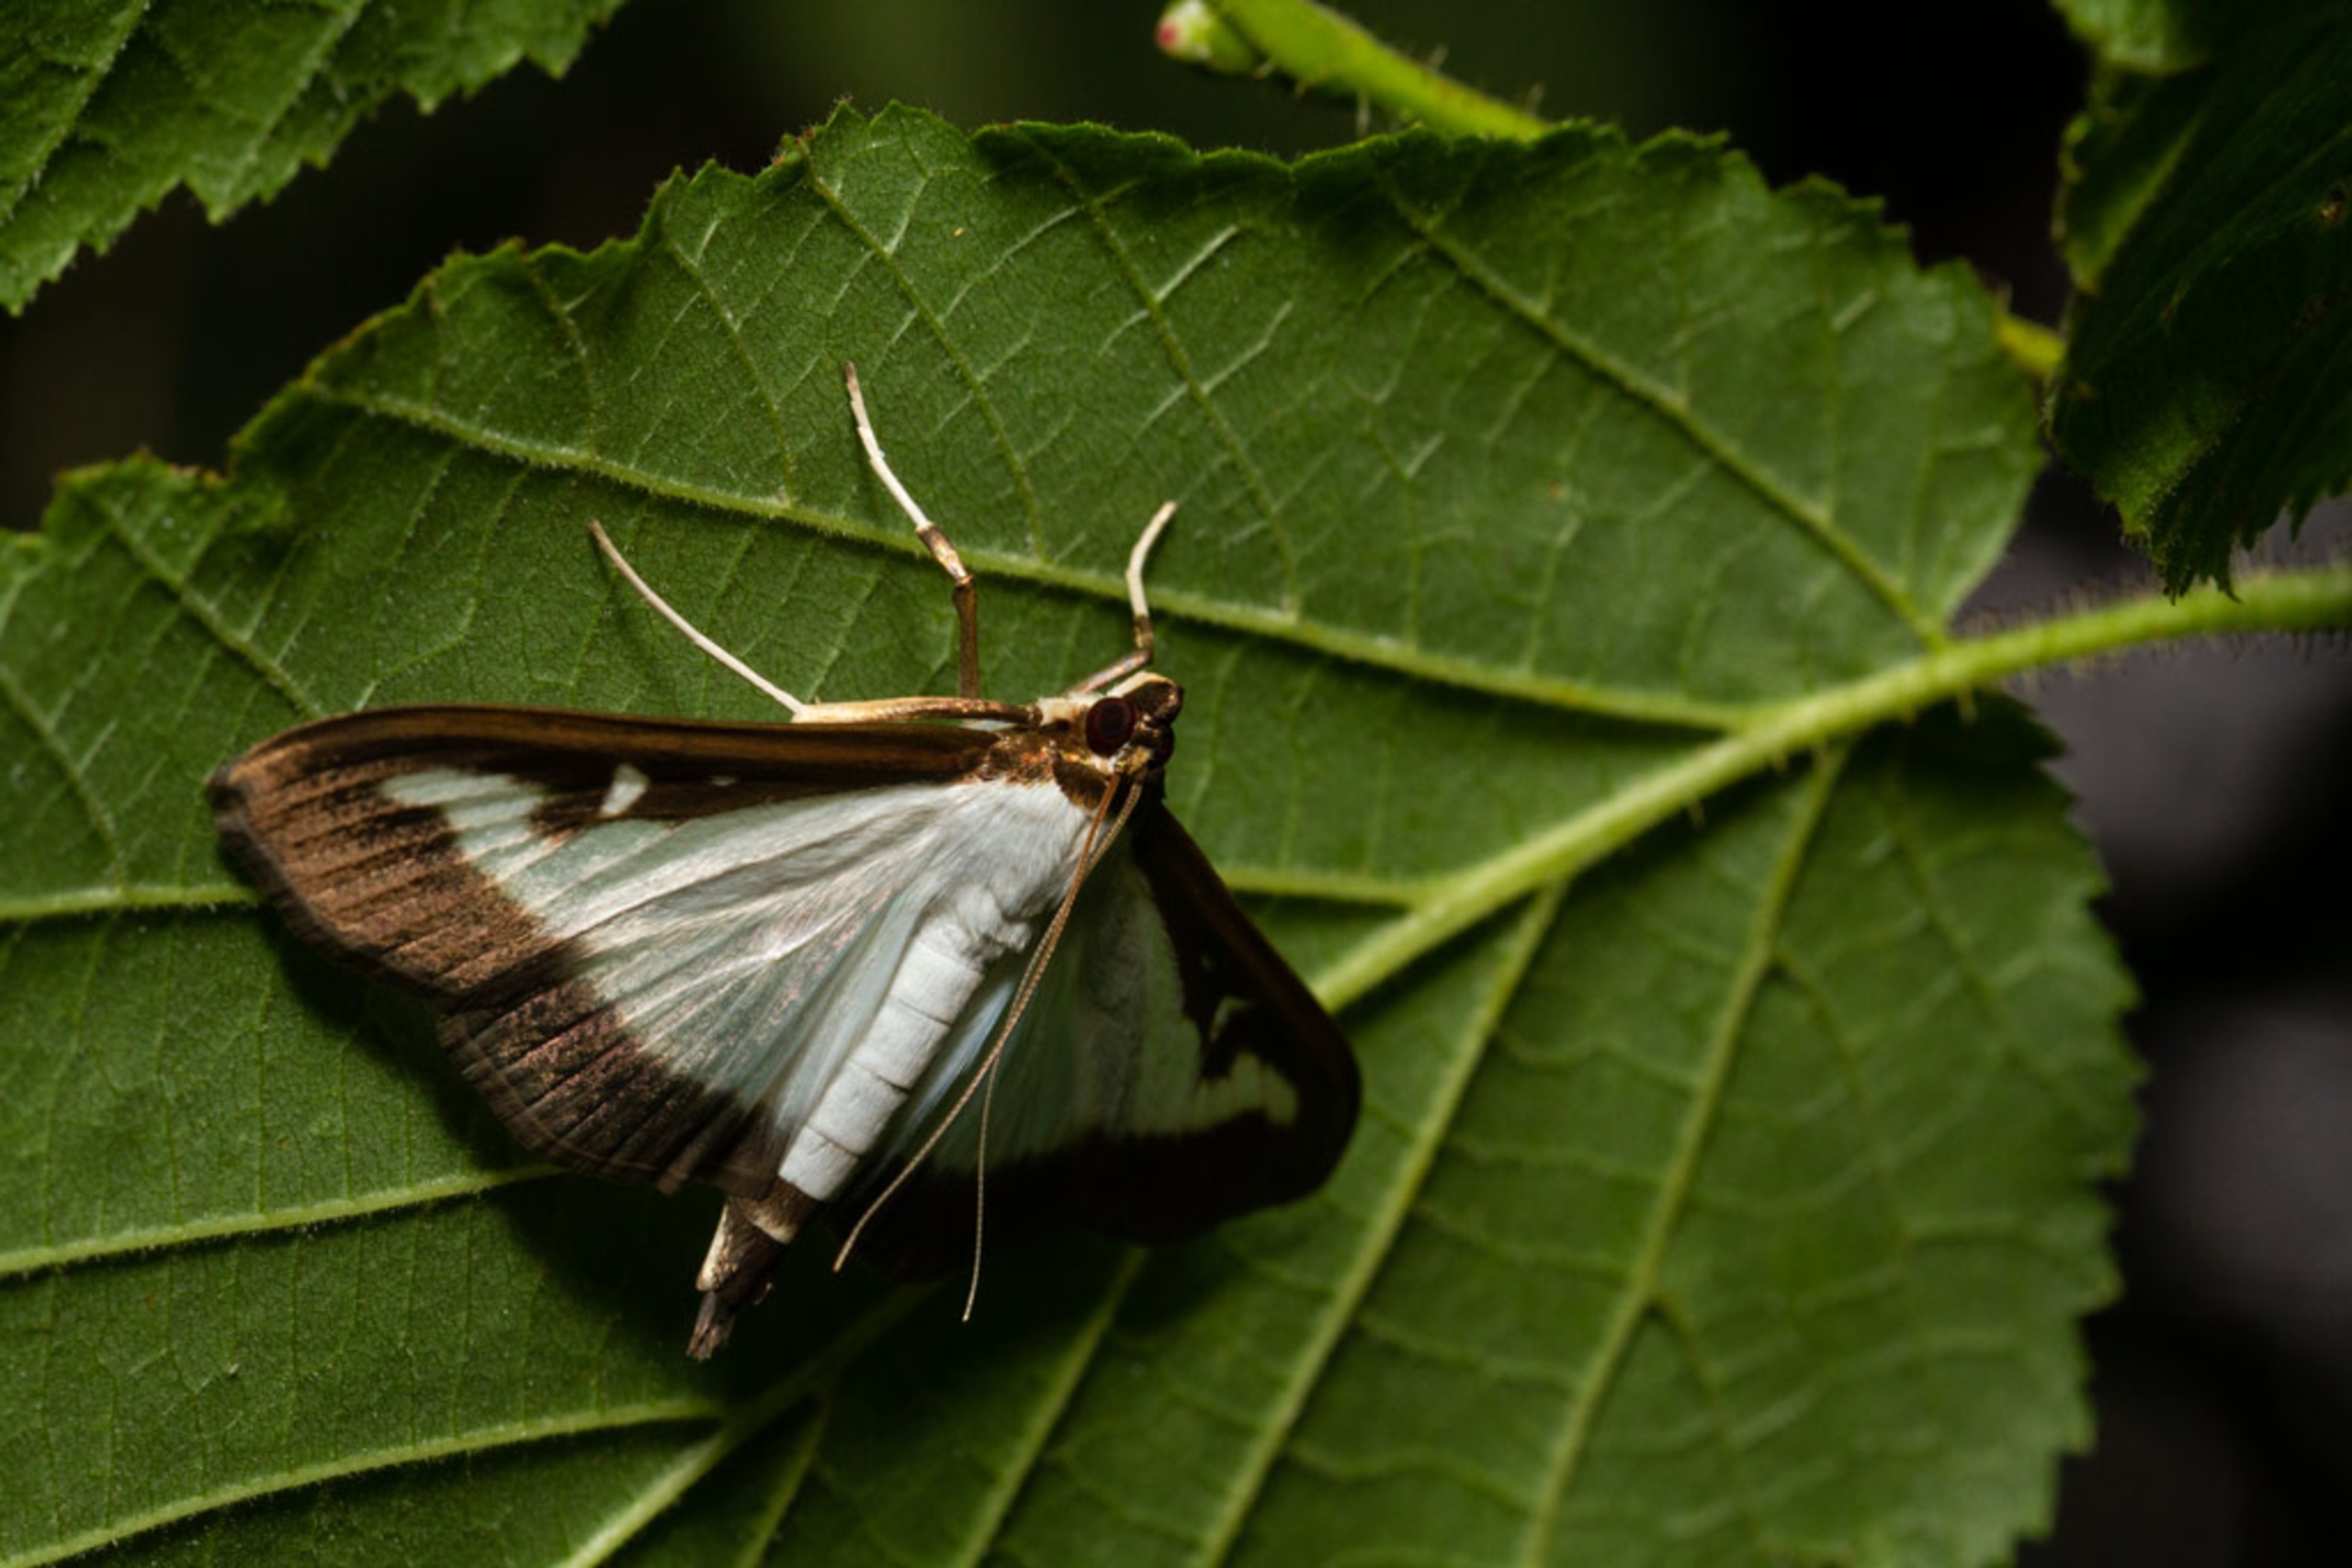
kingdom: Animalia
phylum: Arthropoda
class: Insecta
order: Lepidoptera
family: Crambidae
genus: Cydalima
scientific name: Cydalima perspectalis
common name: Buksbomhalvmøl
